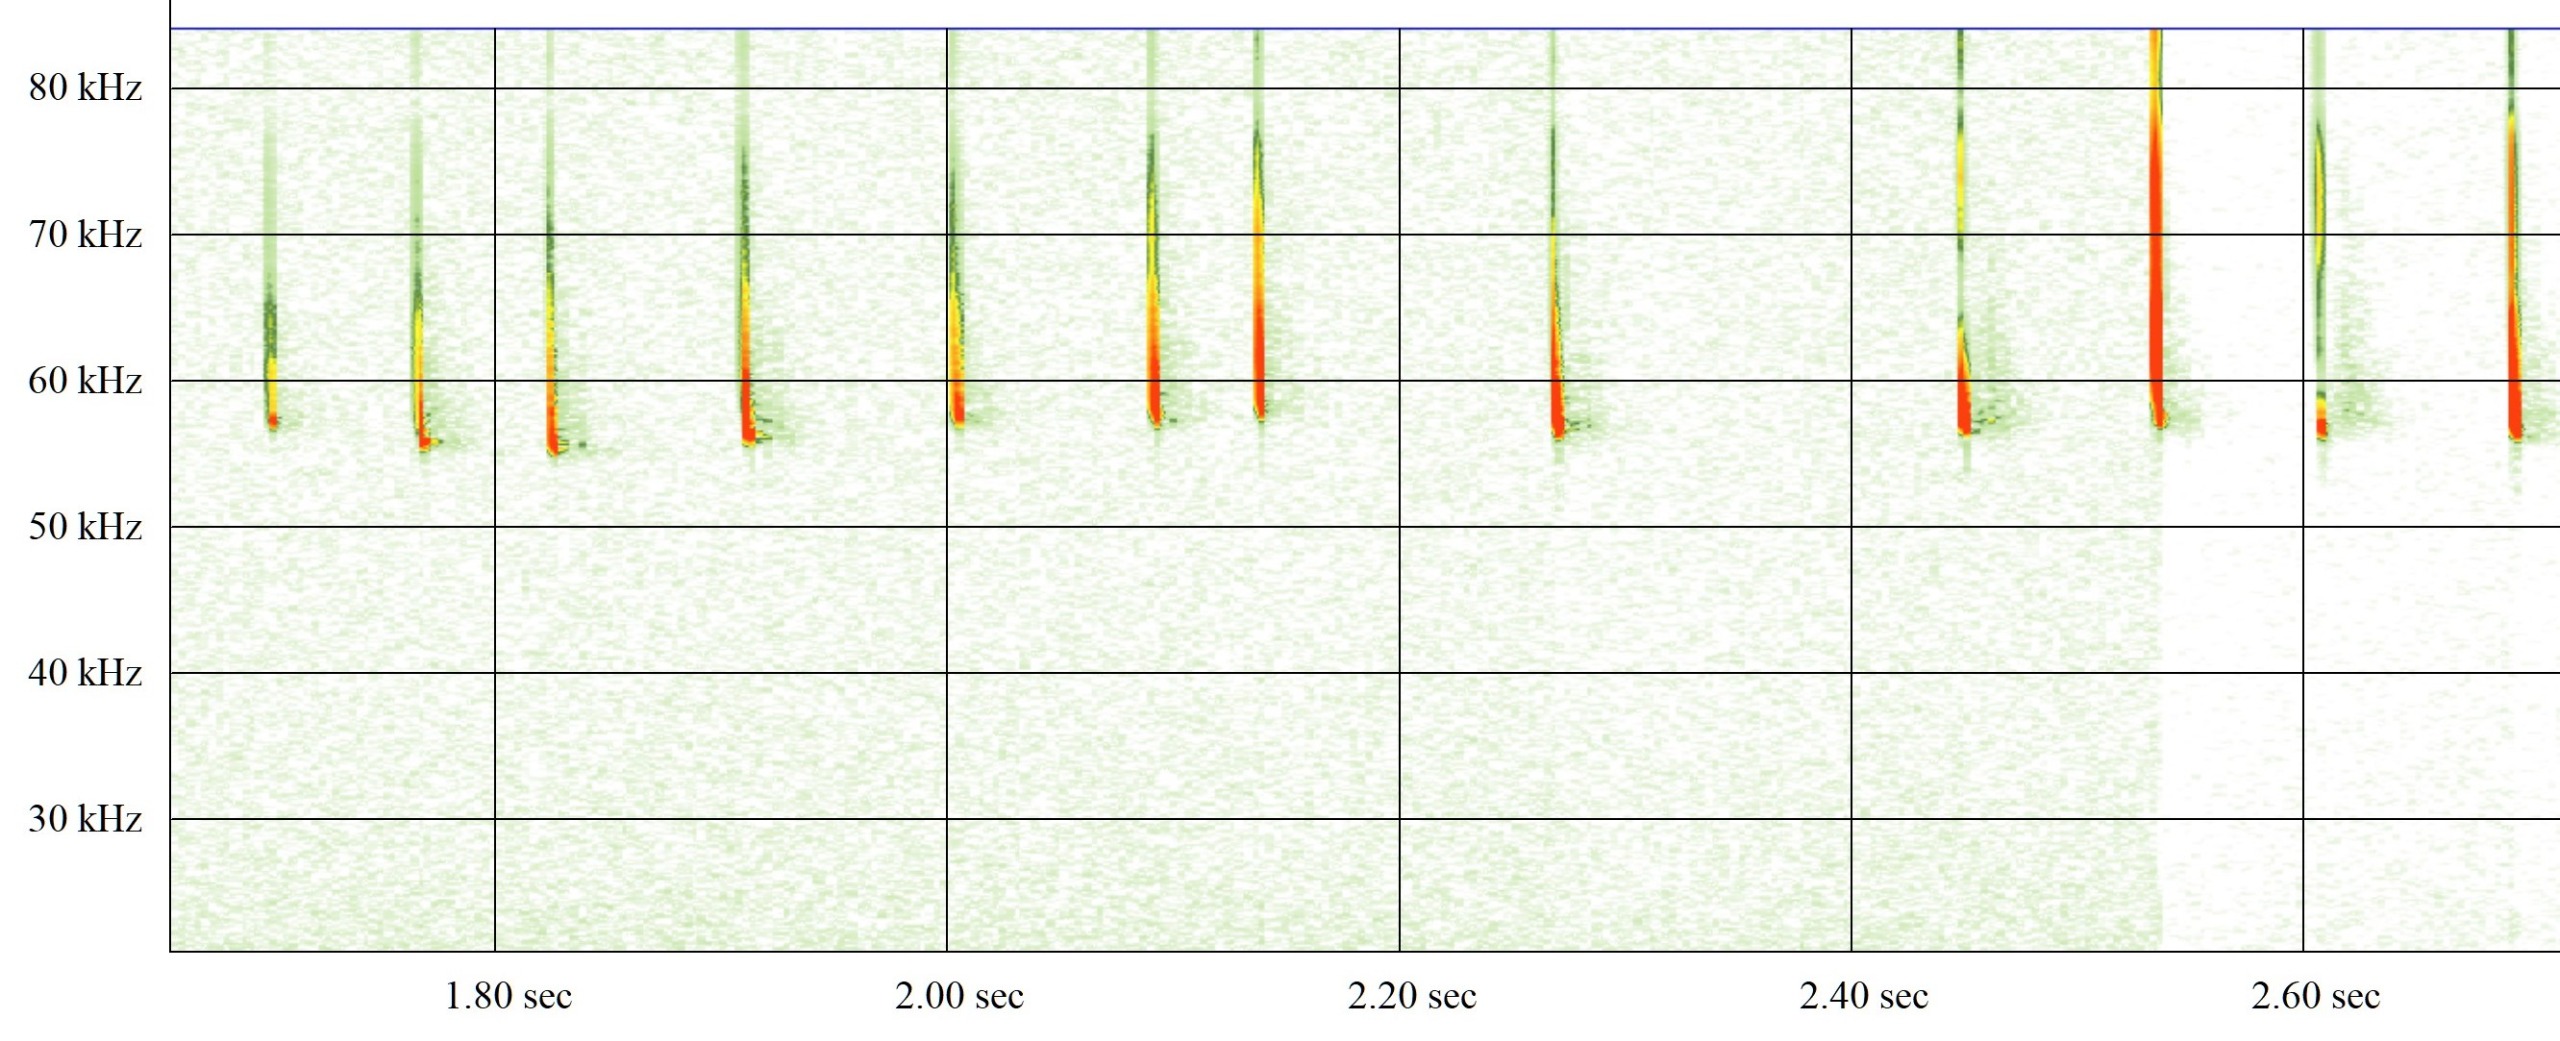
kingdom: Animalia
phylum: Chordata
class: Mammalia
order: Chiroptera
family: Vespertilionidae
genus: Pipistrellus
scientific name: Pipistrellus pygmaeus
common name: Dværgflagermus
